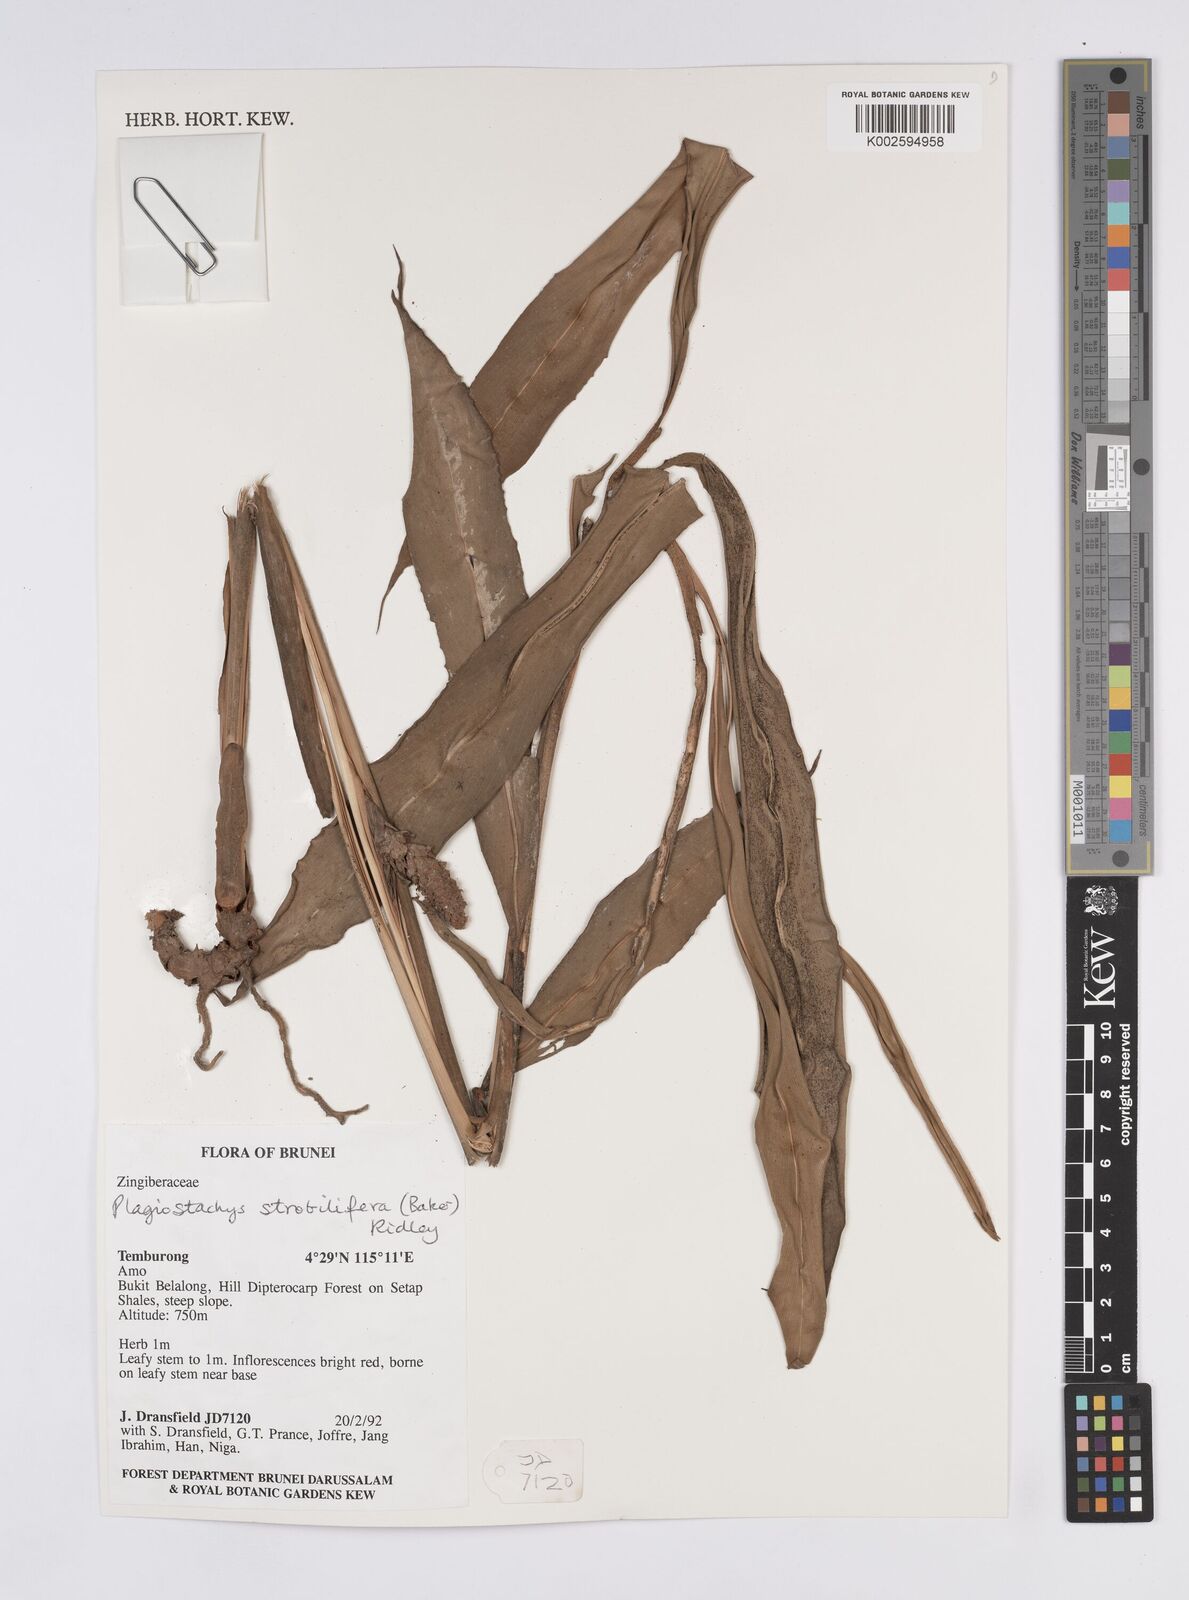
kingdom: Plantae
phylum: Tracheophyta
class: Liliopsida
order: Zingiberales
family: Zingiberaceae
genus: Plagiostachys
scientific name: Plagiostachys strobilifera
